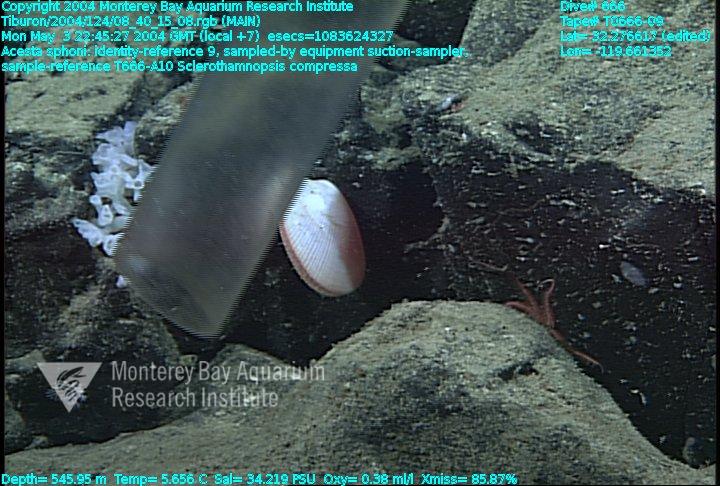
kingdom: Animalia
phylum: Porifera
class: Hexactinellida
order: Sceptrulophora
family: Tretodictyidae
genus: Sclerothamnopsis
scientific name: Sclerothamnopsis compressa
